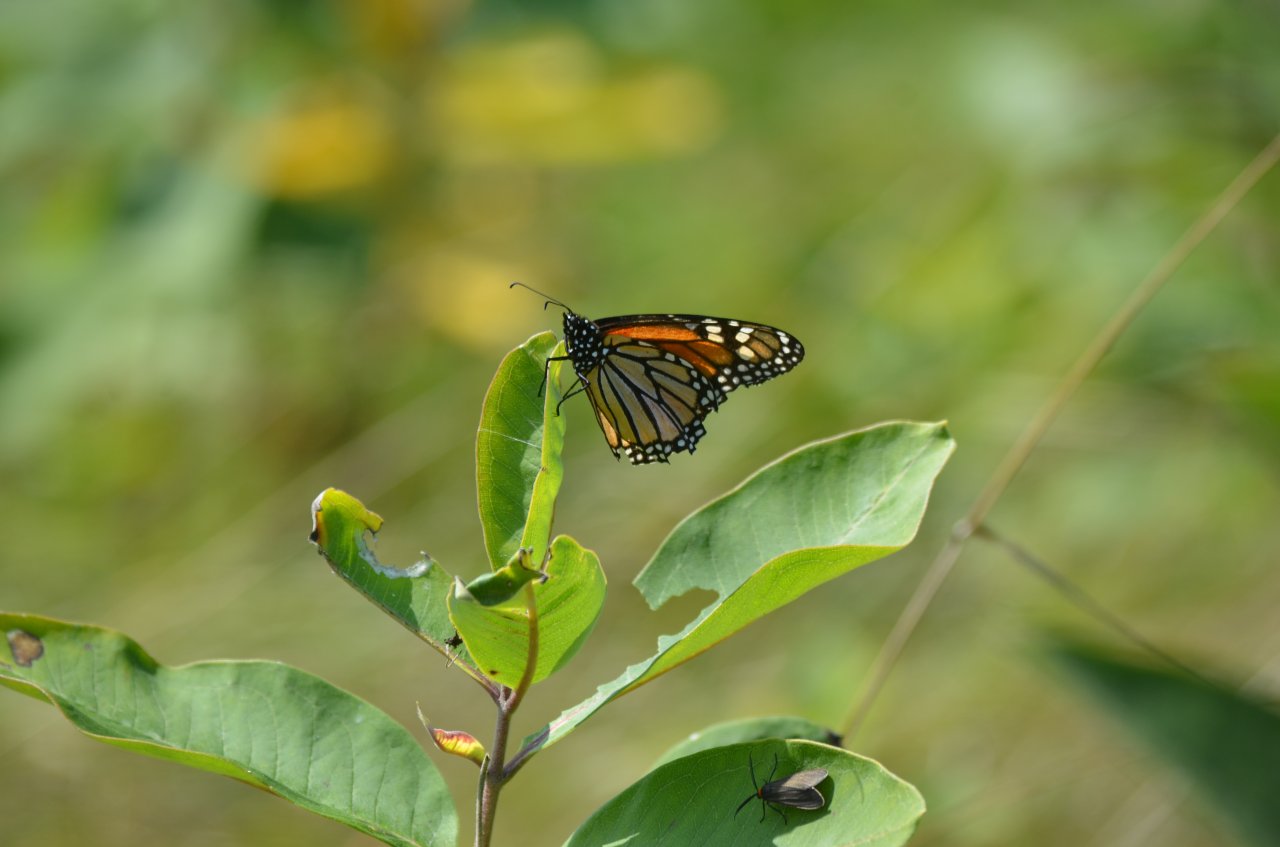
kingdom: Animalia
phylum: Arthropoda
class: Insecta
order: Lepidoptera
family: Nymphalidae
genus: Danaus
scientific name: Danaus plexippus
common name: Monarch
